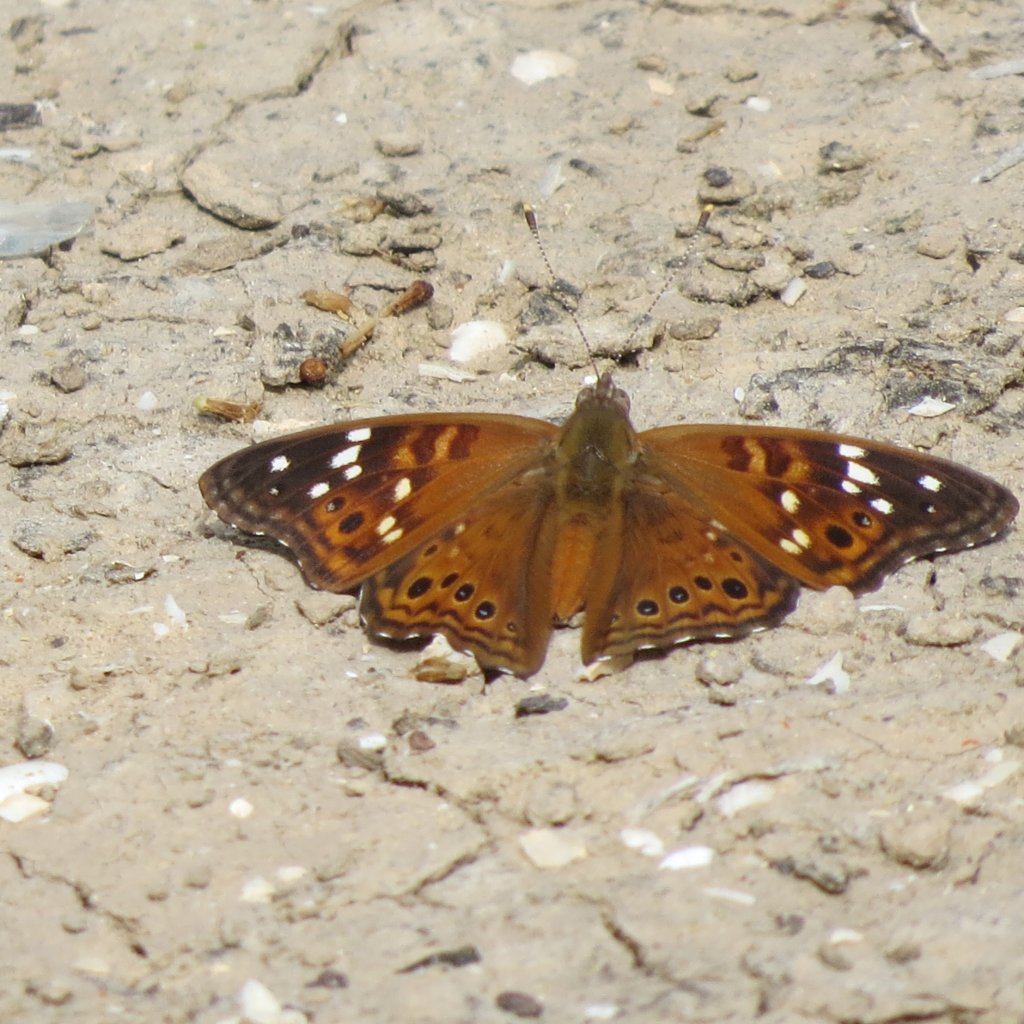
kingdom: Animalia
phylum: Arthropoda
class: Insecta
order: Lepidoptera
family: Nymphalidae
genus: Asterocampa
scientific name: Asterocampa leilia
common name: Empress Leilia
